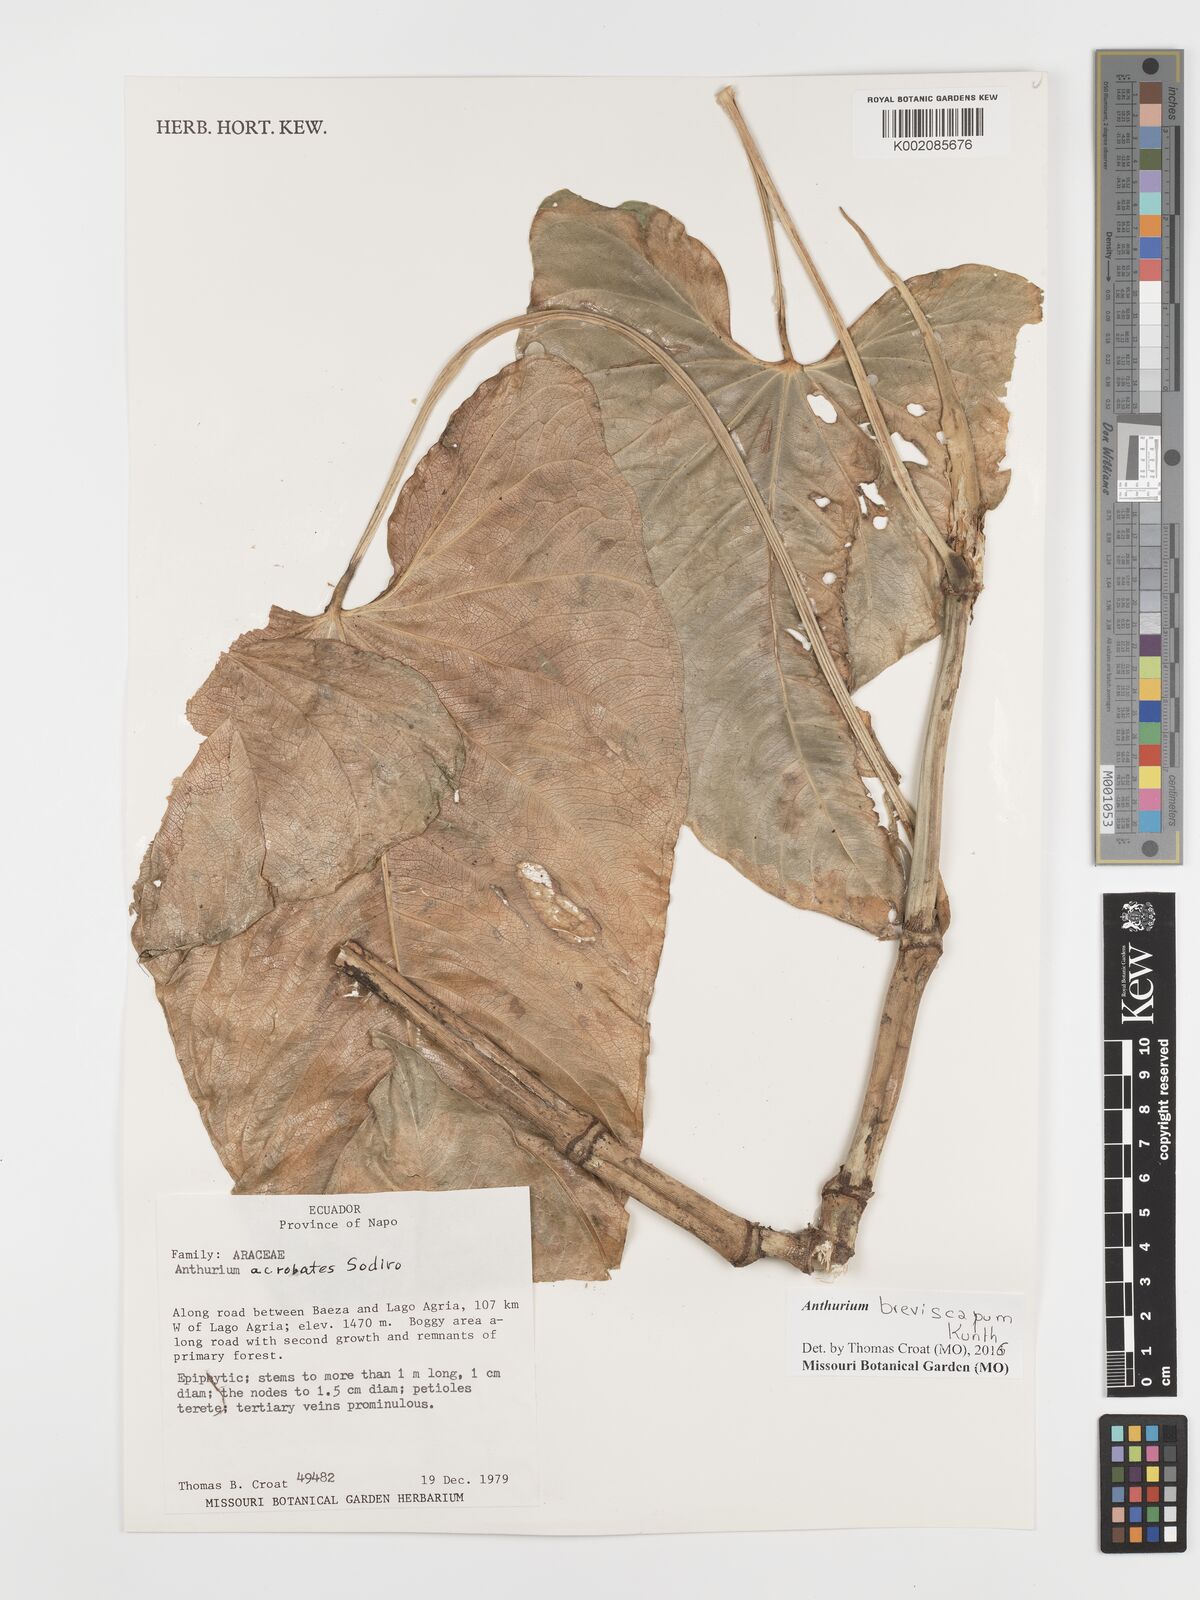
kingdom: Plantae
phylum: Tracheophyta
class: Liliopsida
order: Alismatales
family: Araceae
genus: Anthurium
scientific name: Anthurium breviscapum
